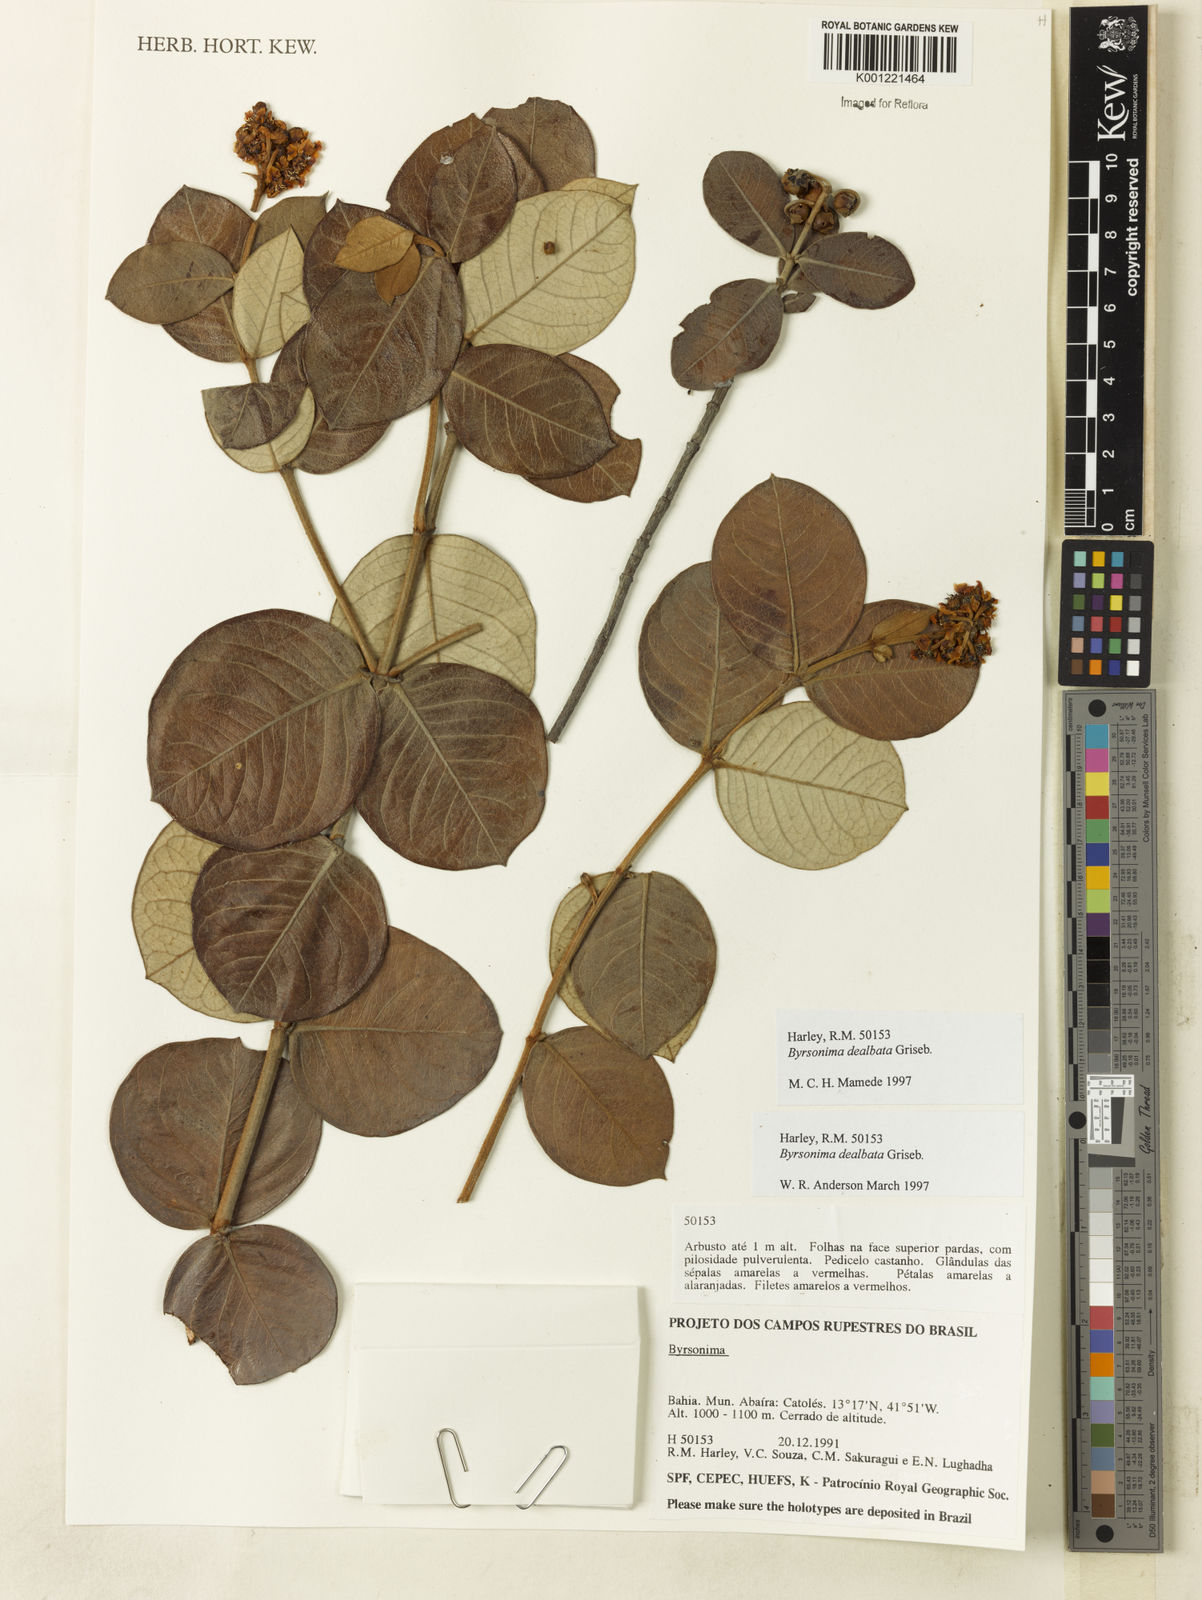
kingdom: Plantae
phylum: Tracheophyta
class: Magnoliopsida
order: Malpighiales
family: Malpighiaceae
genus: Byrsonima
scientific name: Byrsonima dealbata
